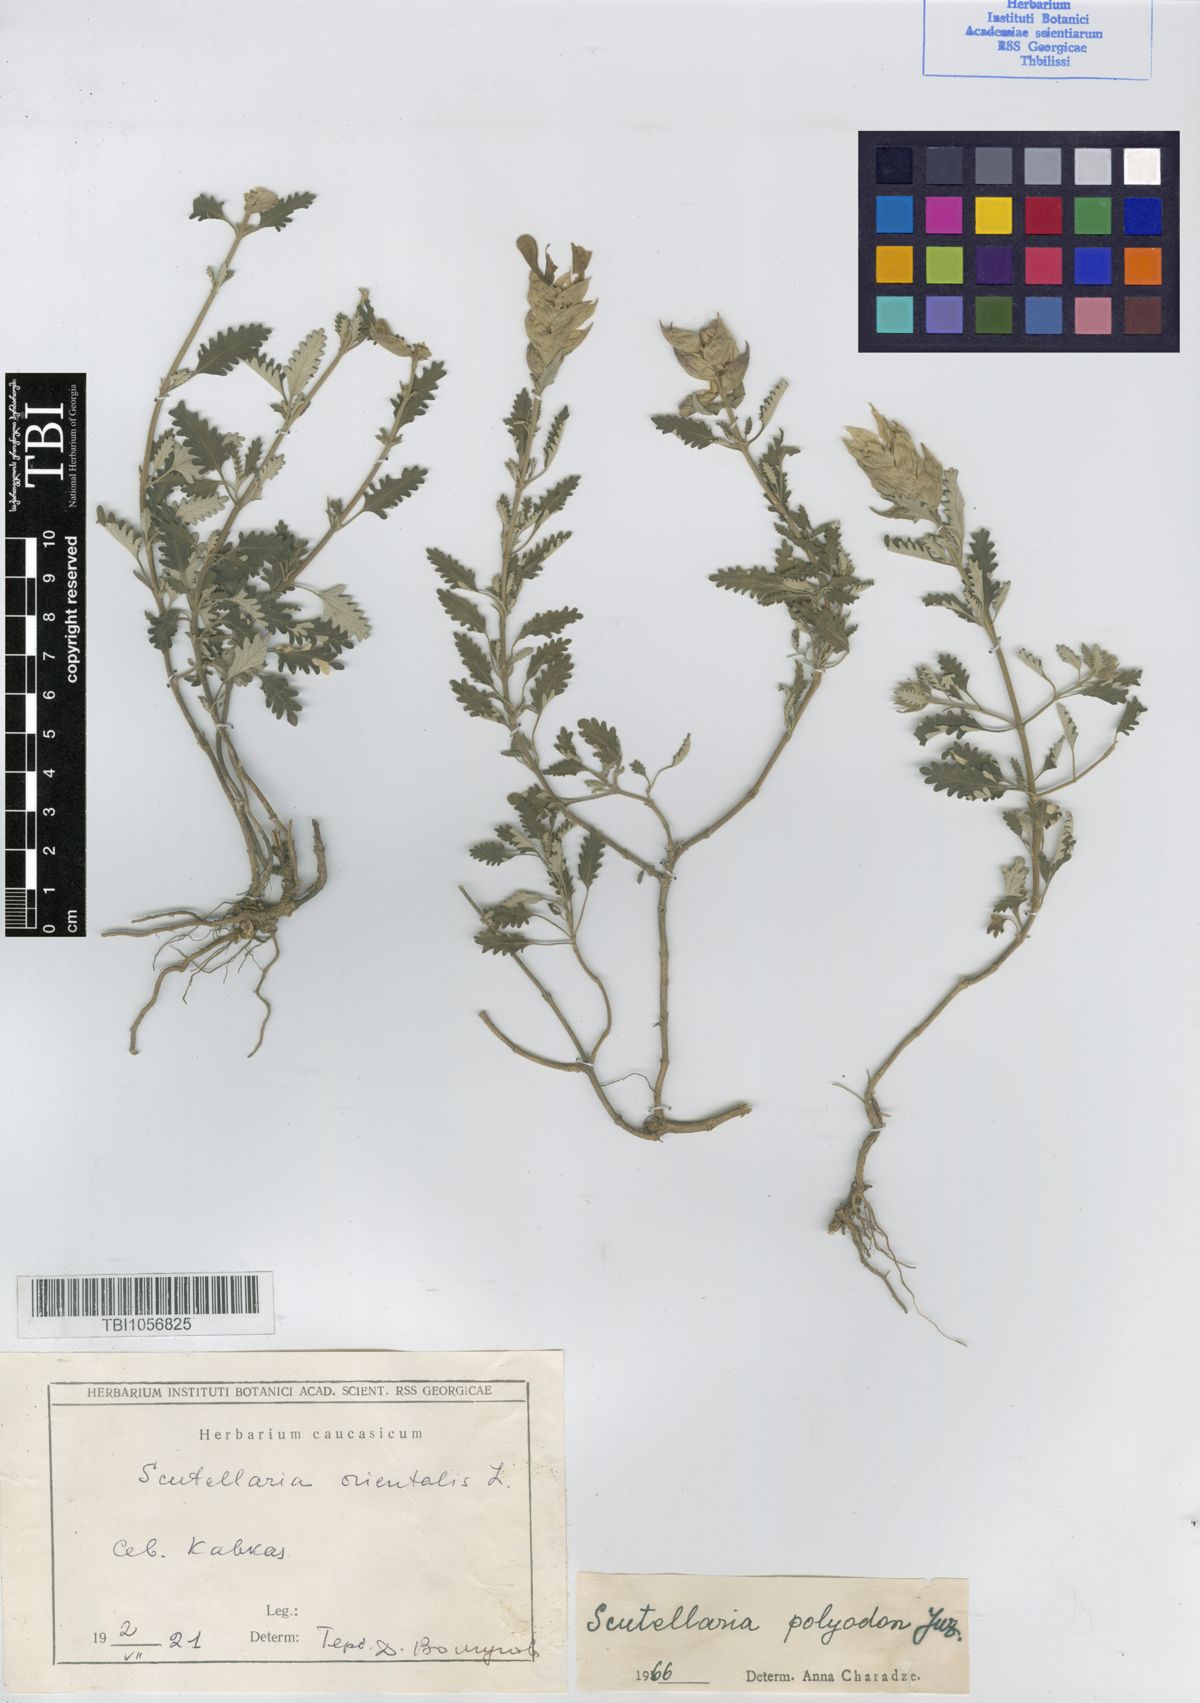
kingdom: Plantae
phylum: Tracheophyta
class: Magnoliopsida
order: Lamiales
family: Lamiaceae
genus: Scutellaria
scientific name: Scutellaria caucasica
